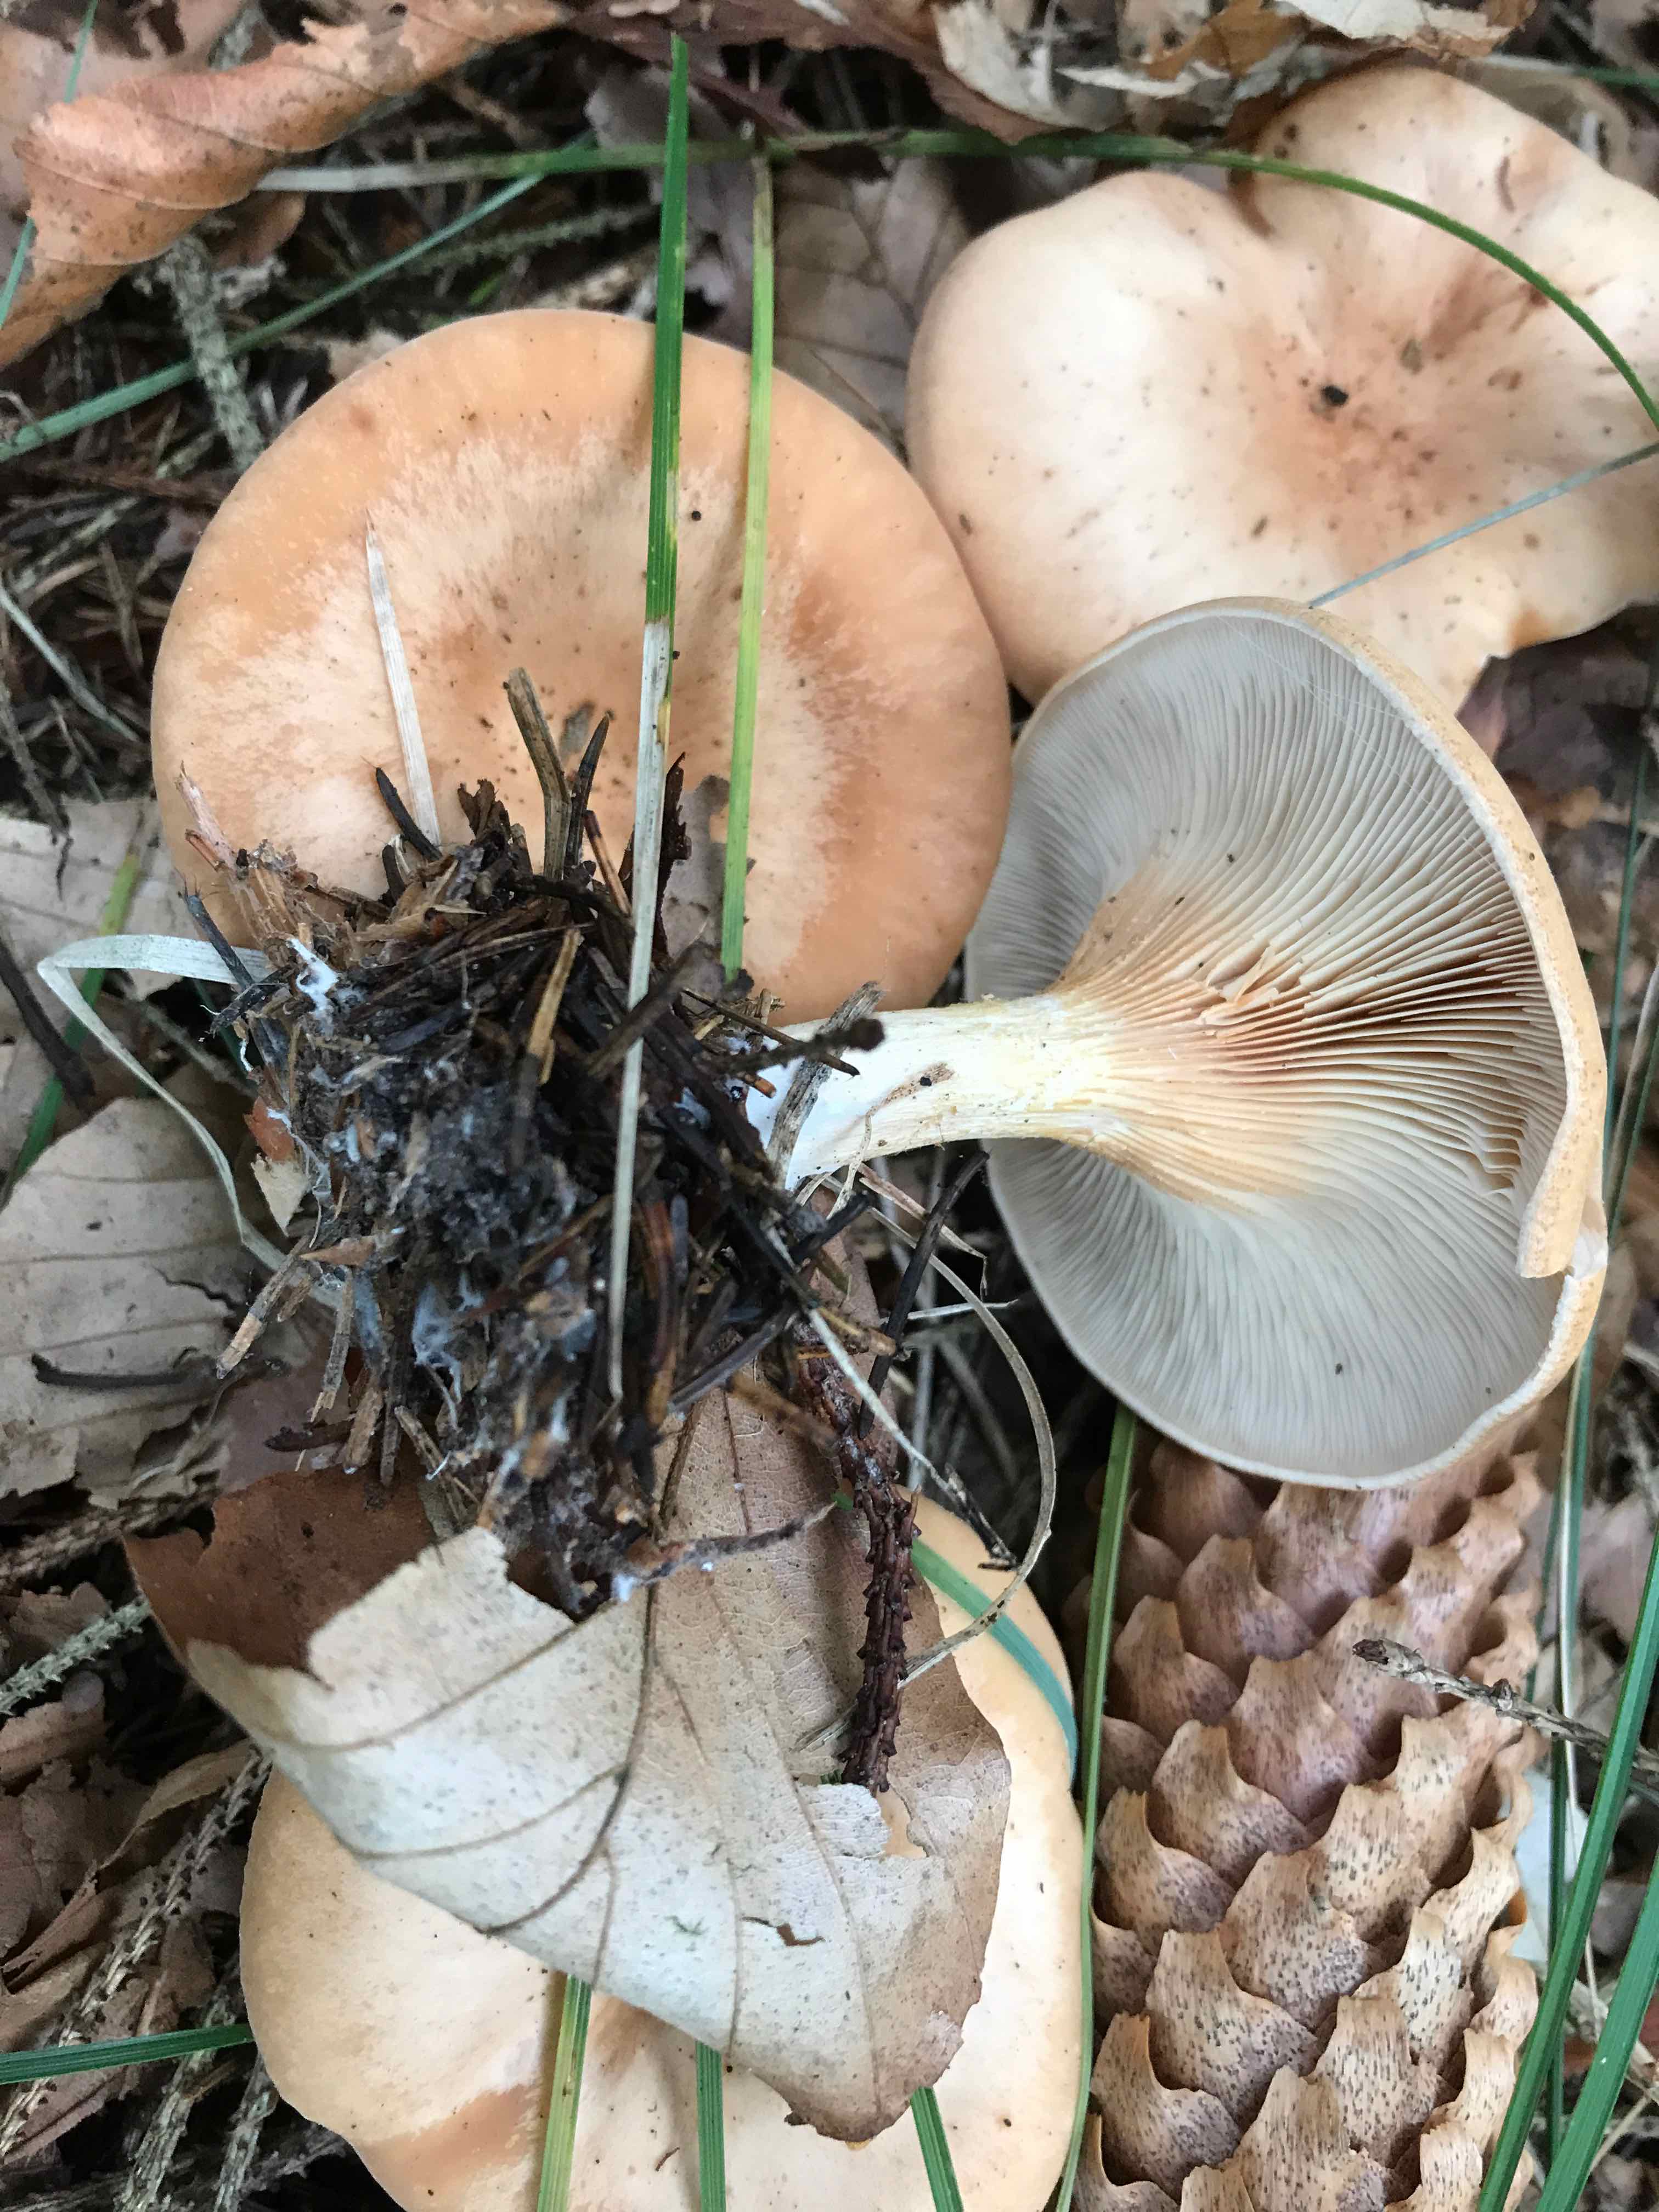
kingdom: Fungi
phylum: Basidiomycota
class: Agaricomycetes
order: Agaricales
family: Tricholomataceae
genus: Paralepista
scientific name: Paralepista flaccida
